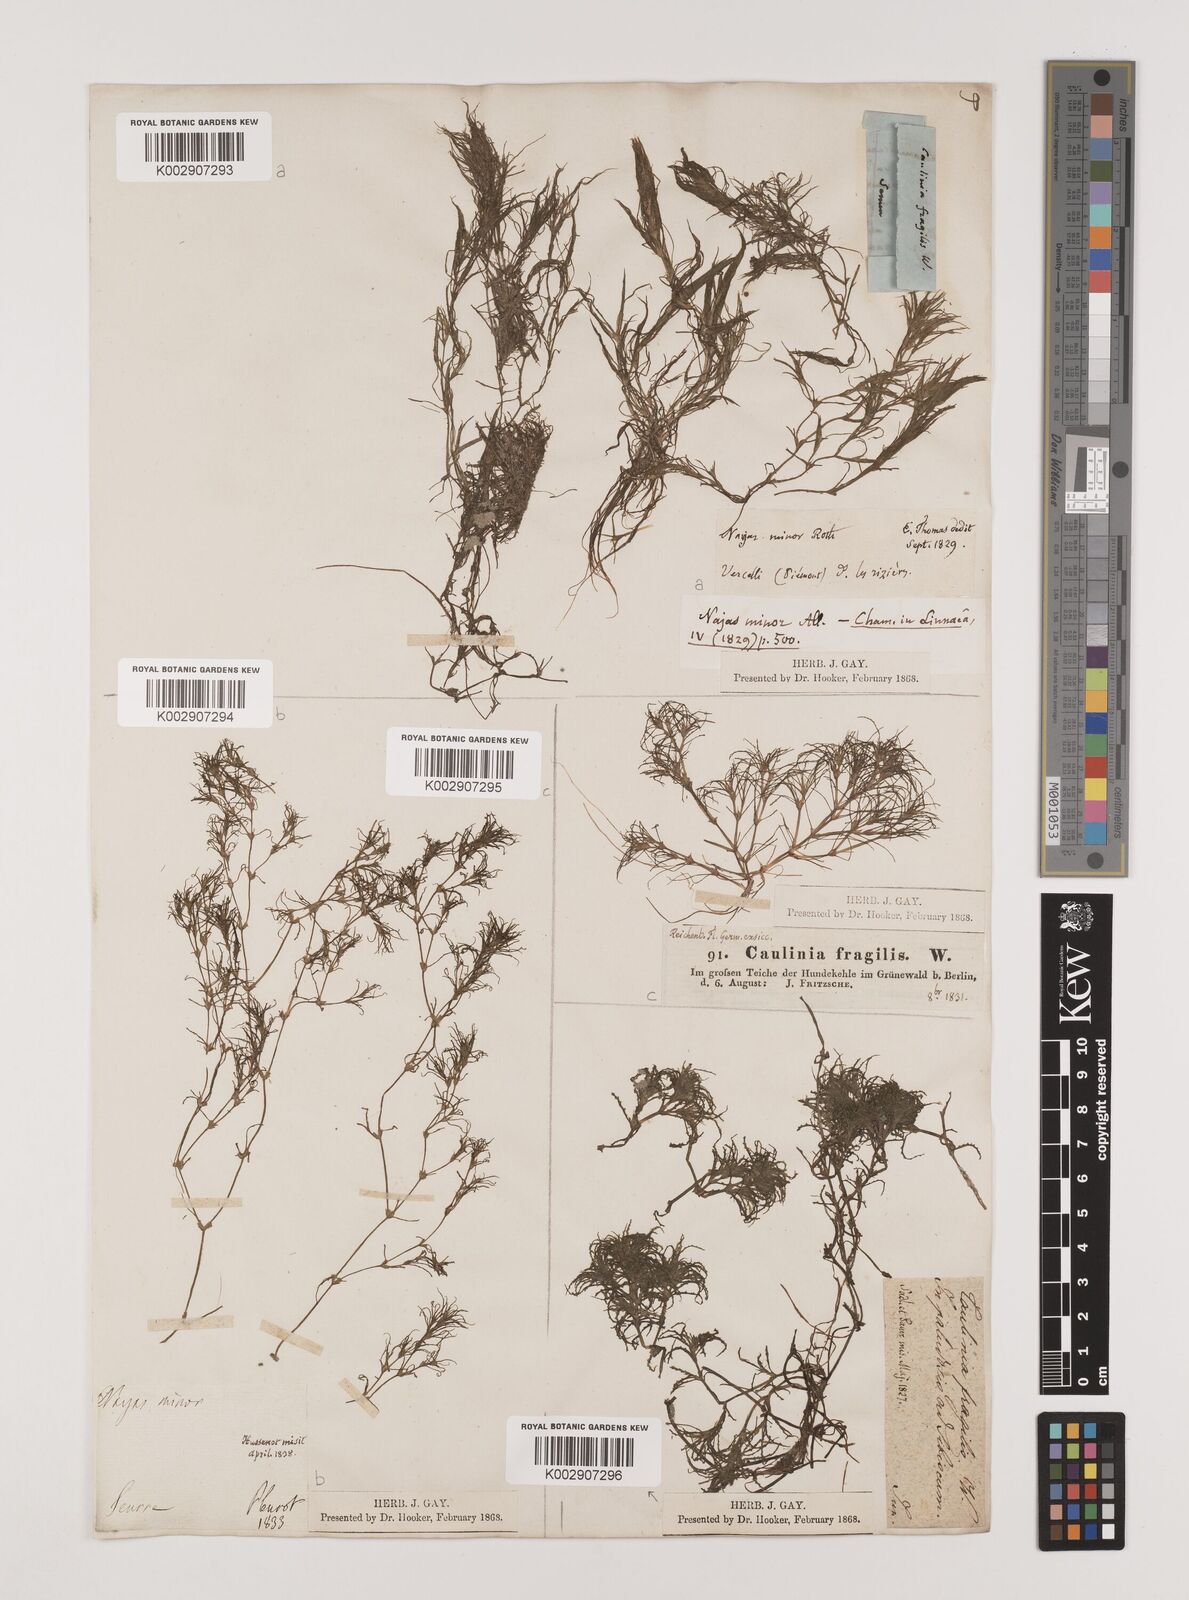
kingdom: Plantae
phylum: Tracheophyta
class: Liliopsida
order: Alismatales
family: Hydrocharitaceae
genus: Najas
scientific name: Najas minor
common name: Brittle naiad
